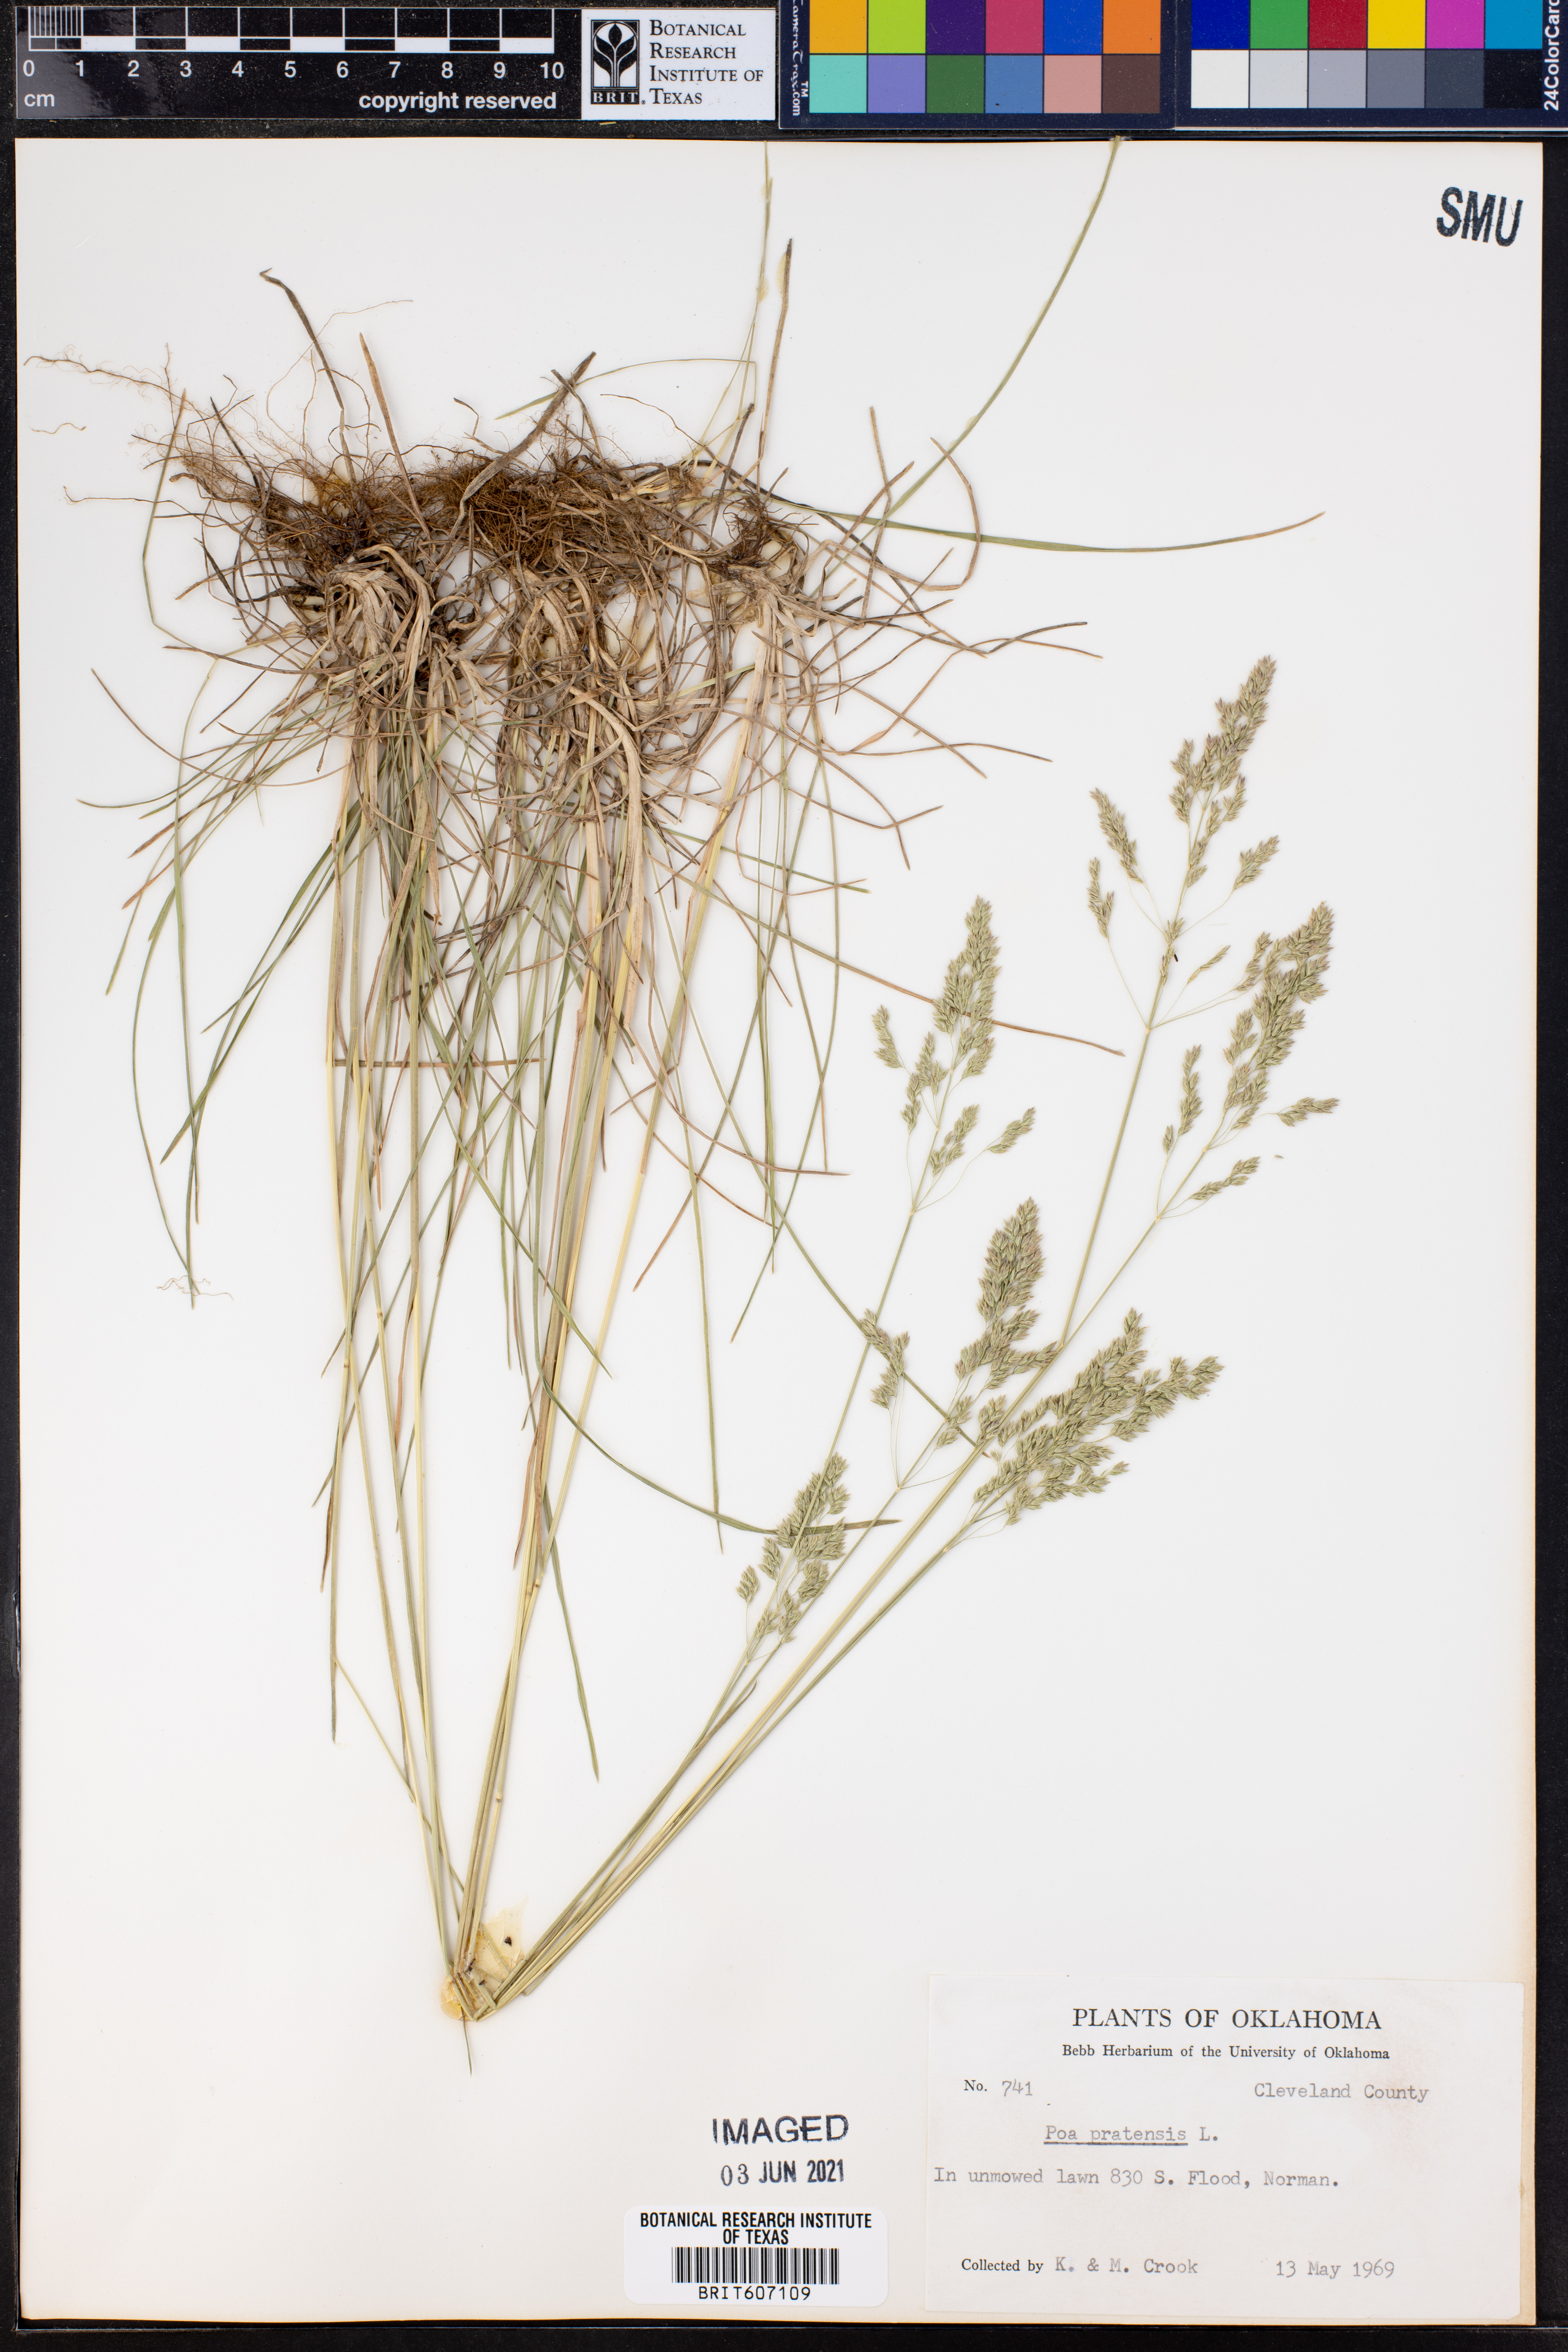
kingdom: Plantae
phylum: Tracheophyta
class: Liliopsida
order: Poales
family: Poaceae
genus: Poa
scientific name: Poa pratensis
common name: Kentucky bluegrass
